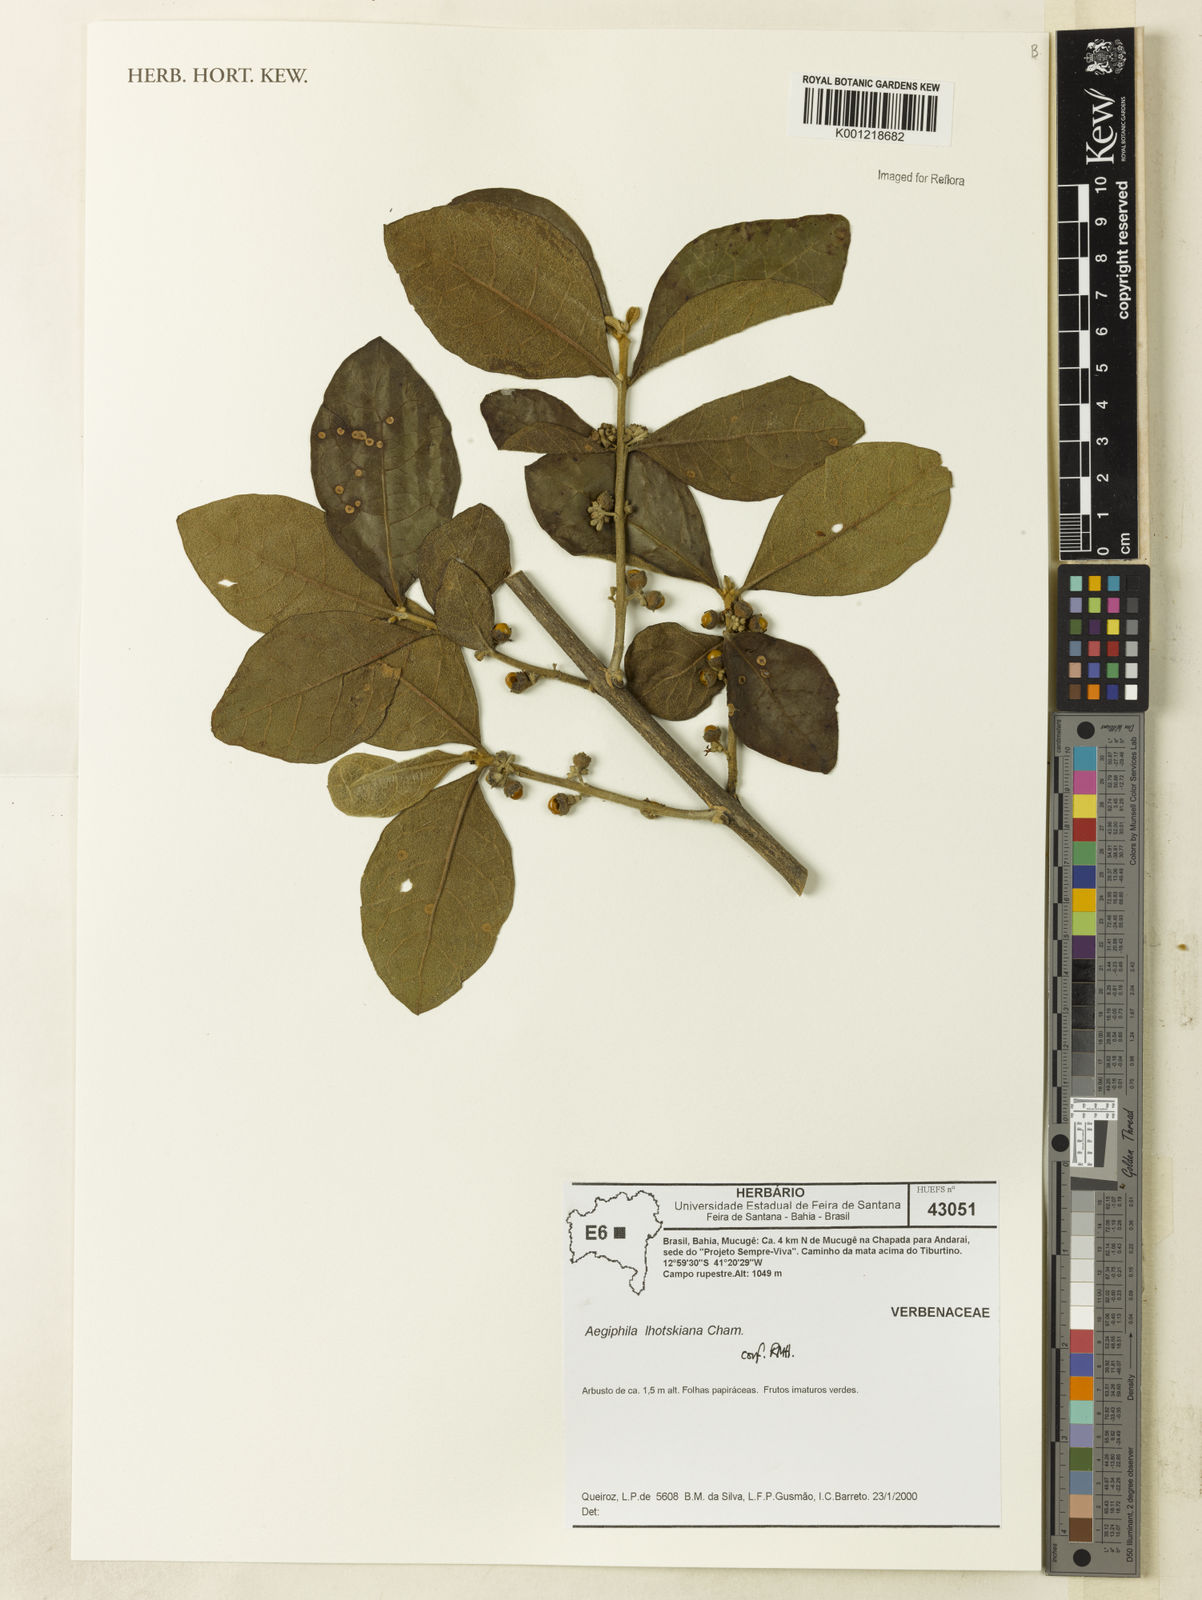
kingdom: Plantae
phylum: Tracheophyta
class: Magnoliopsida
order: Lamiales
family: Lamiaceae
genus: Aegiphila
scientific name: Aegiphila verticillata
